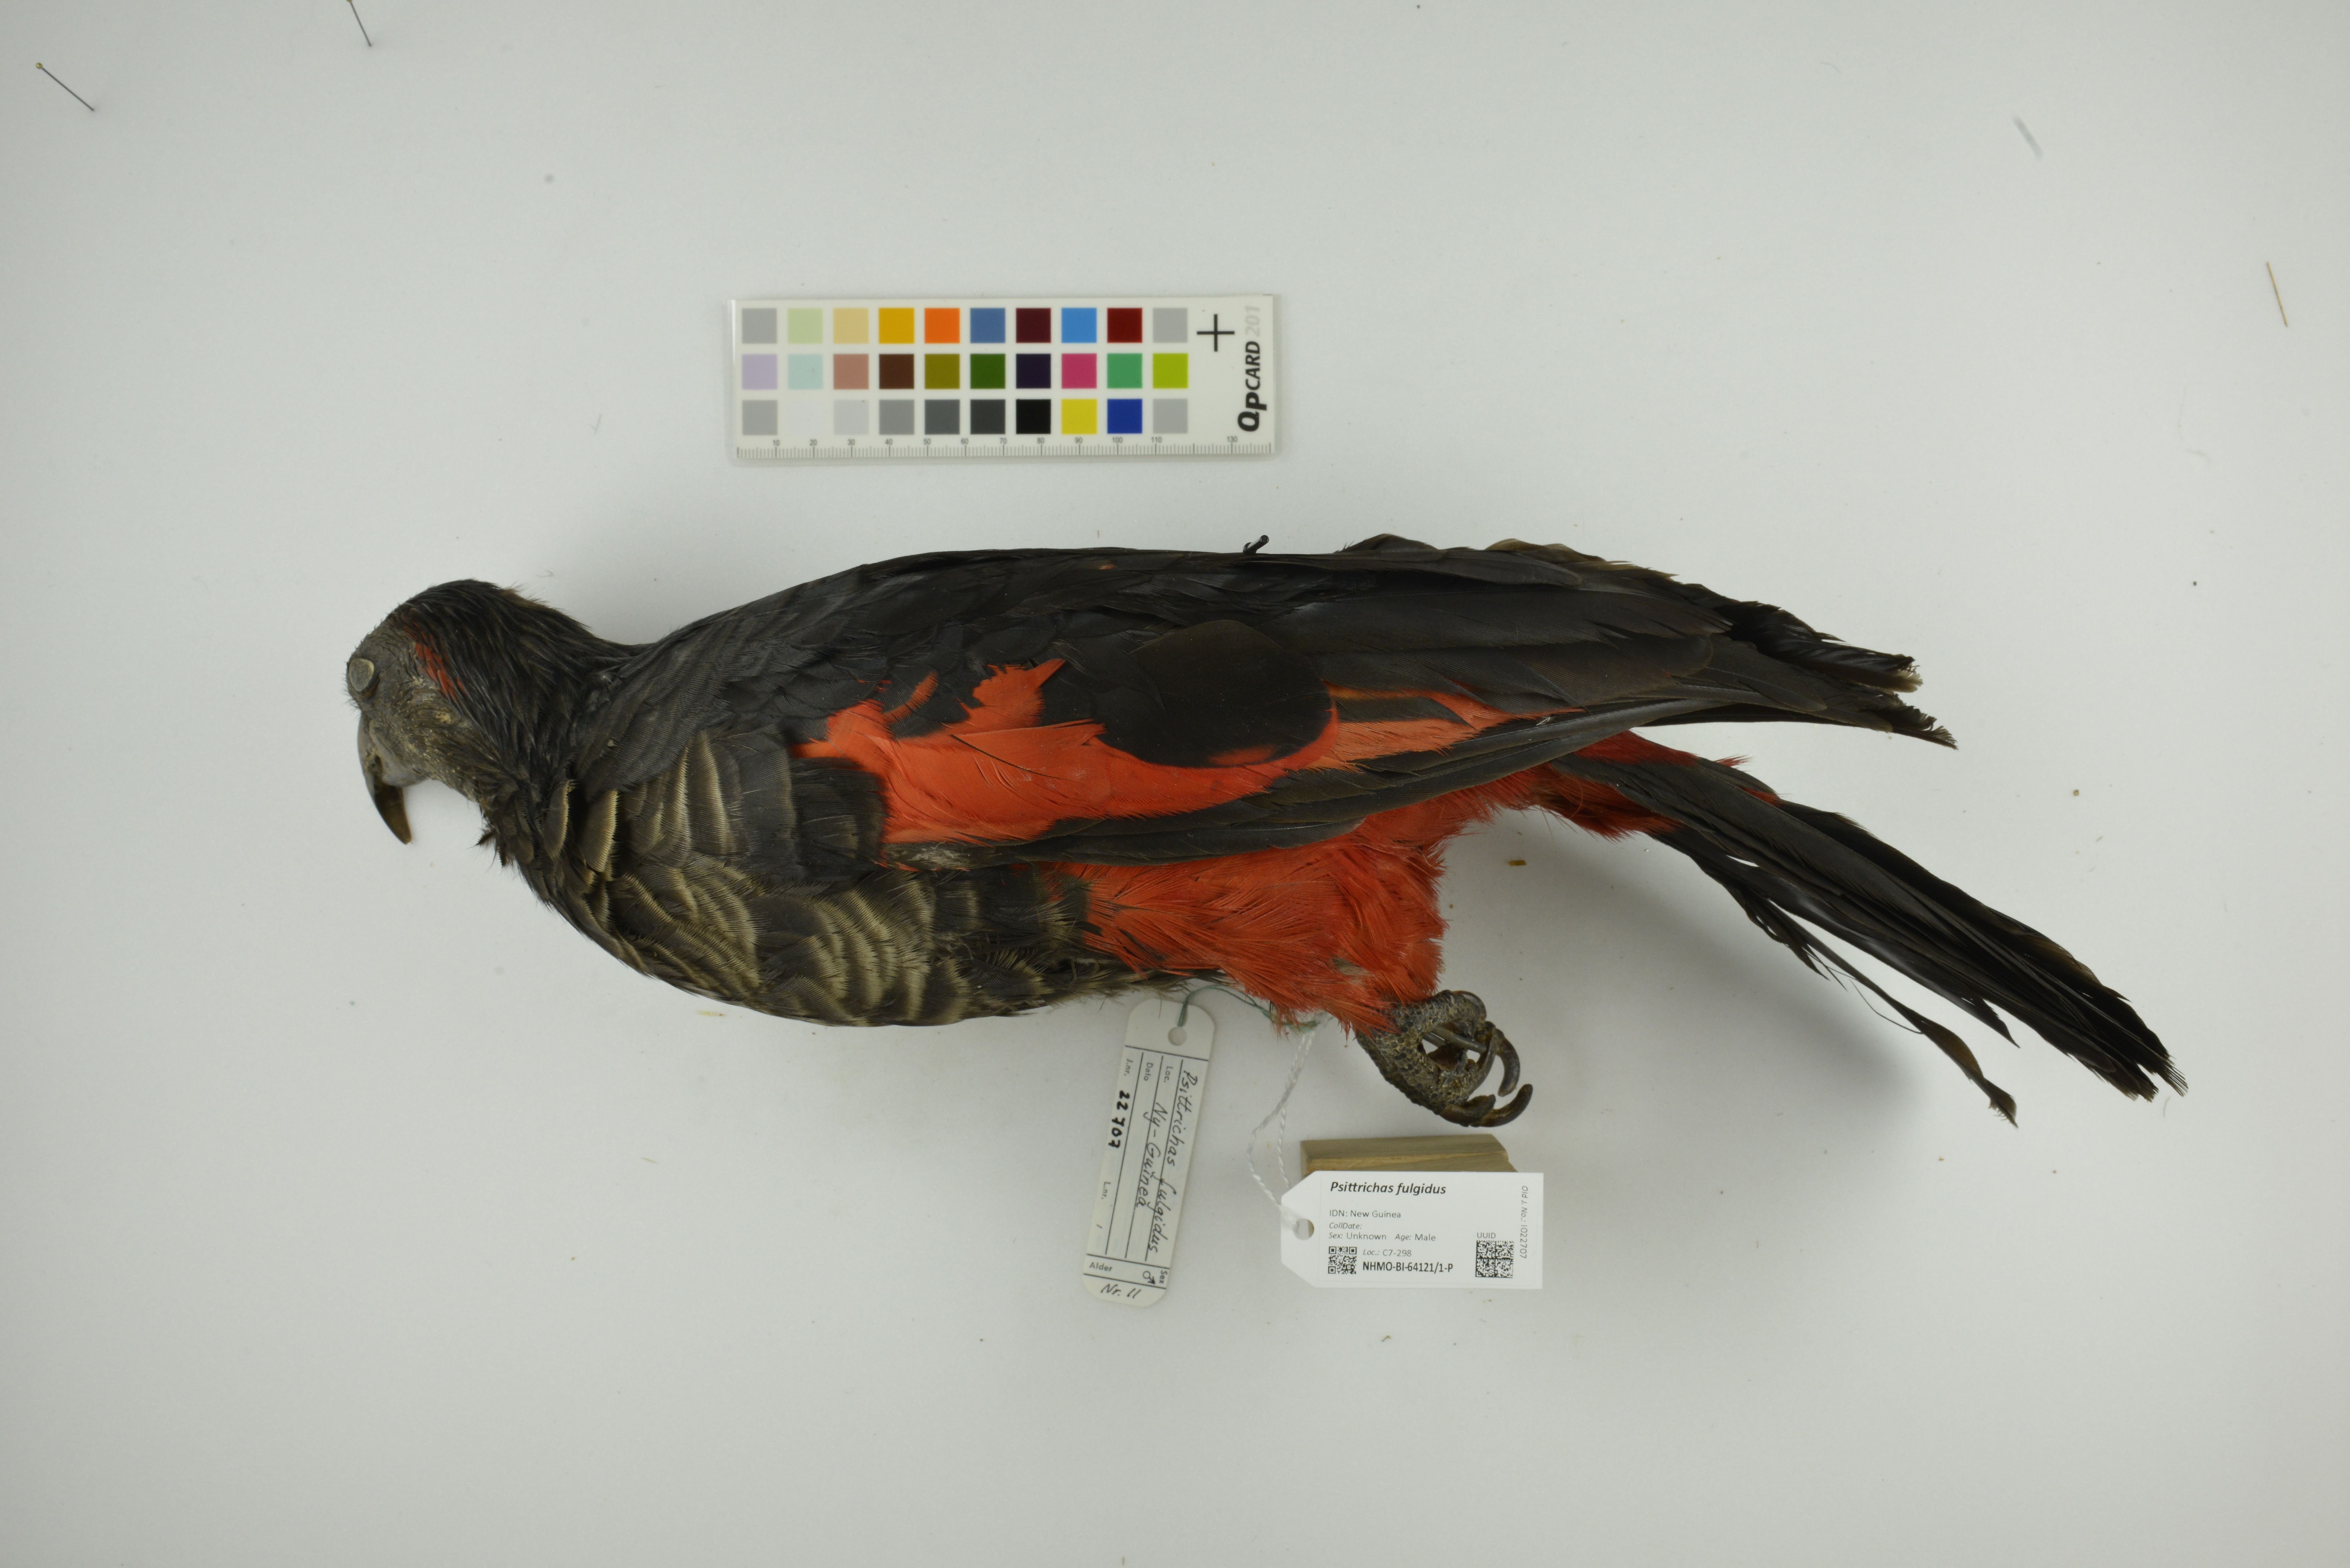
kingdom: Animalia
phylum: Chordata
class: Aves
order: Psittaciformes
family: Psittacidae
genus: Psittrichas
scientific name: Psittrichas fulgidus
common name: Pesquet's parrot
